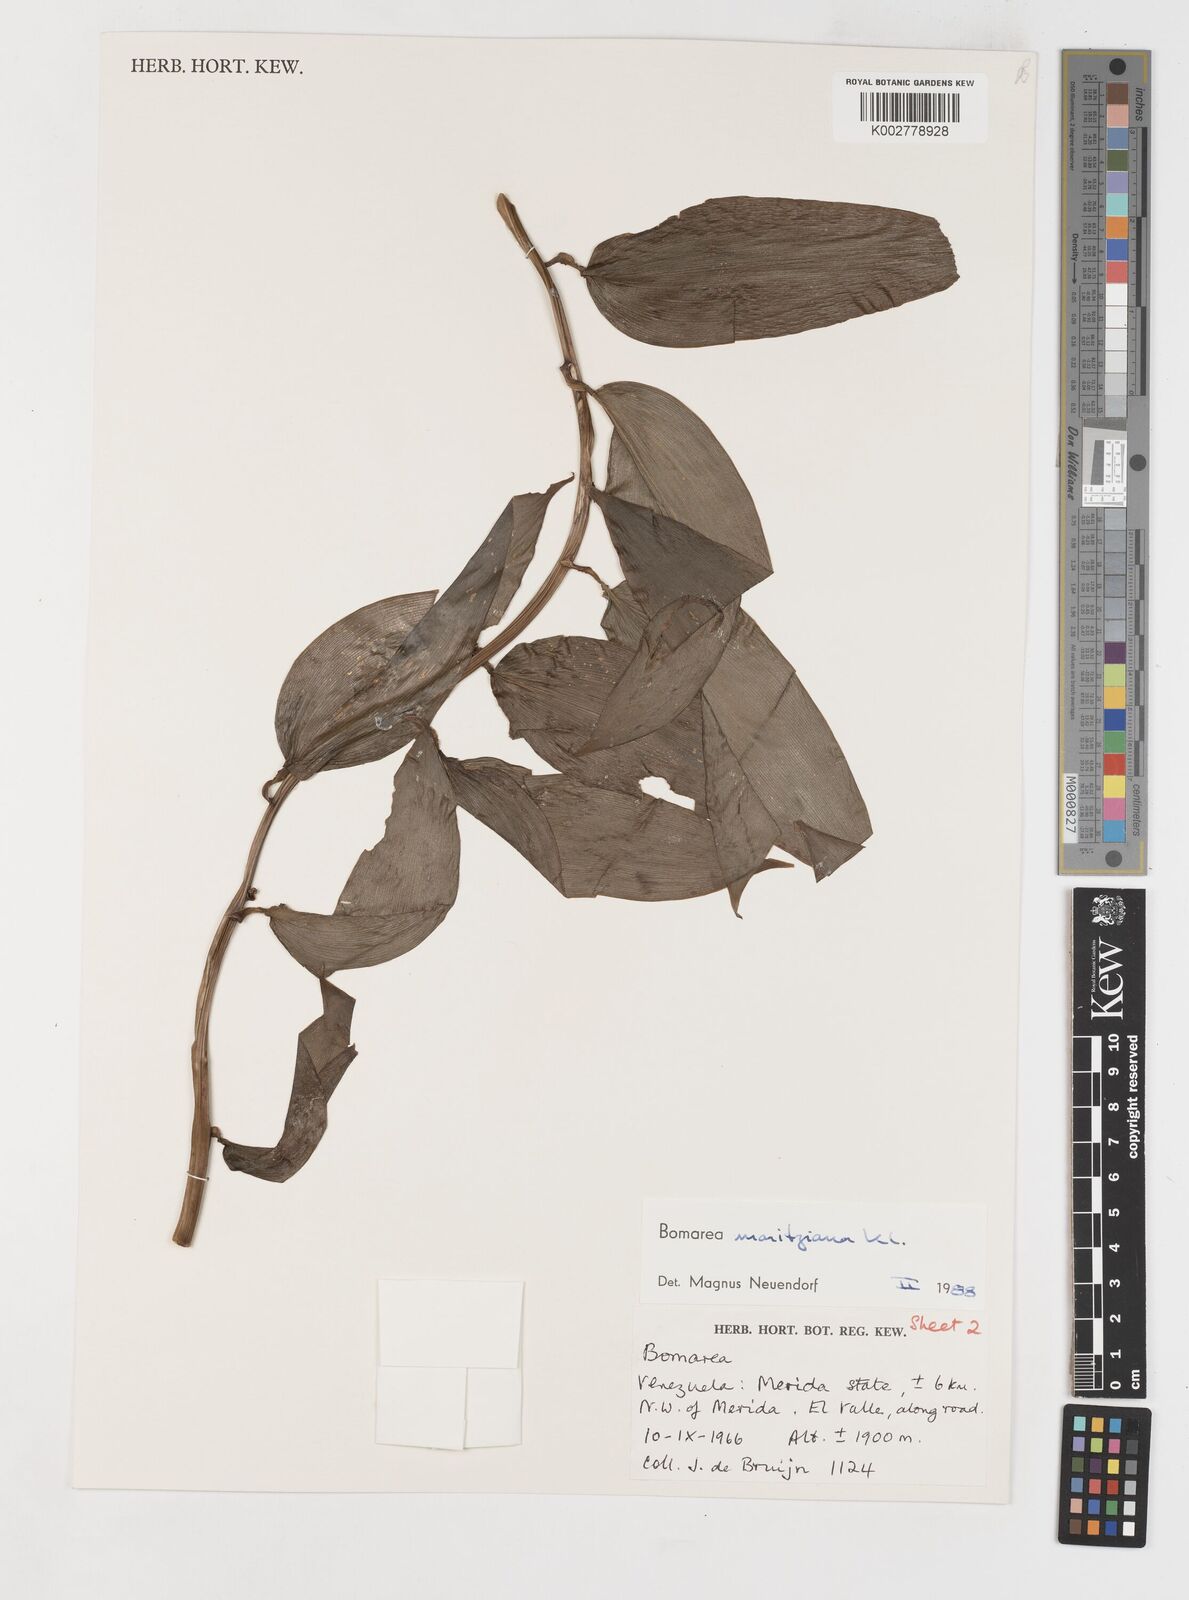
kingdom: Plantae
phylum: Tracheophyta
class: Liliopsida
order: Liliales
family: Alstroemeriaceae
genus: Bomarea
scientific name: Bomarea moritziana
